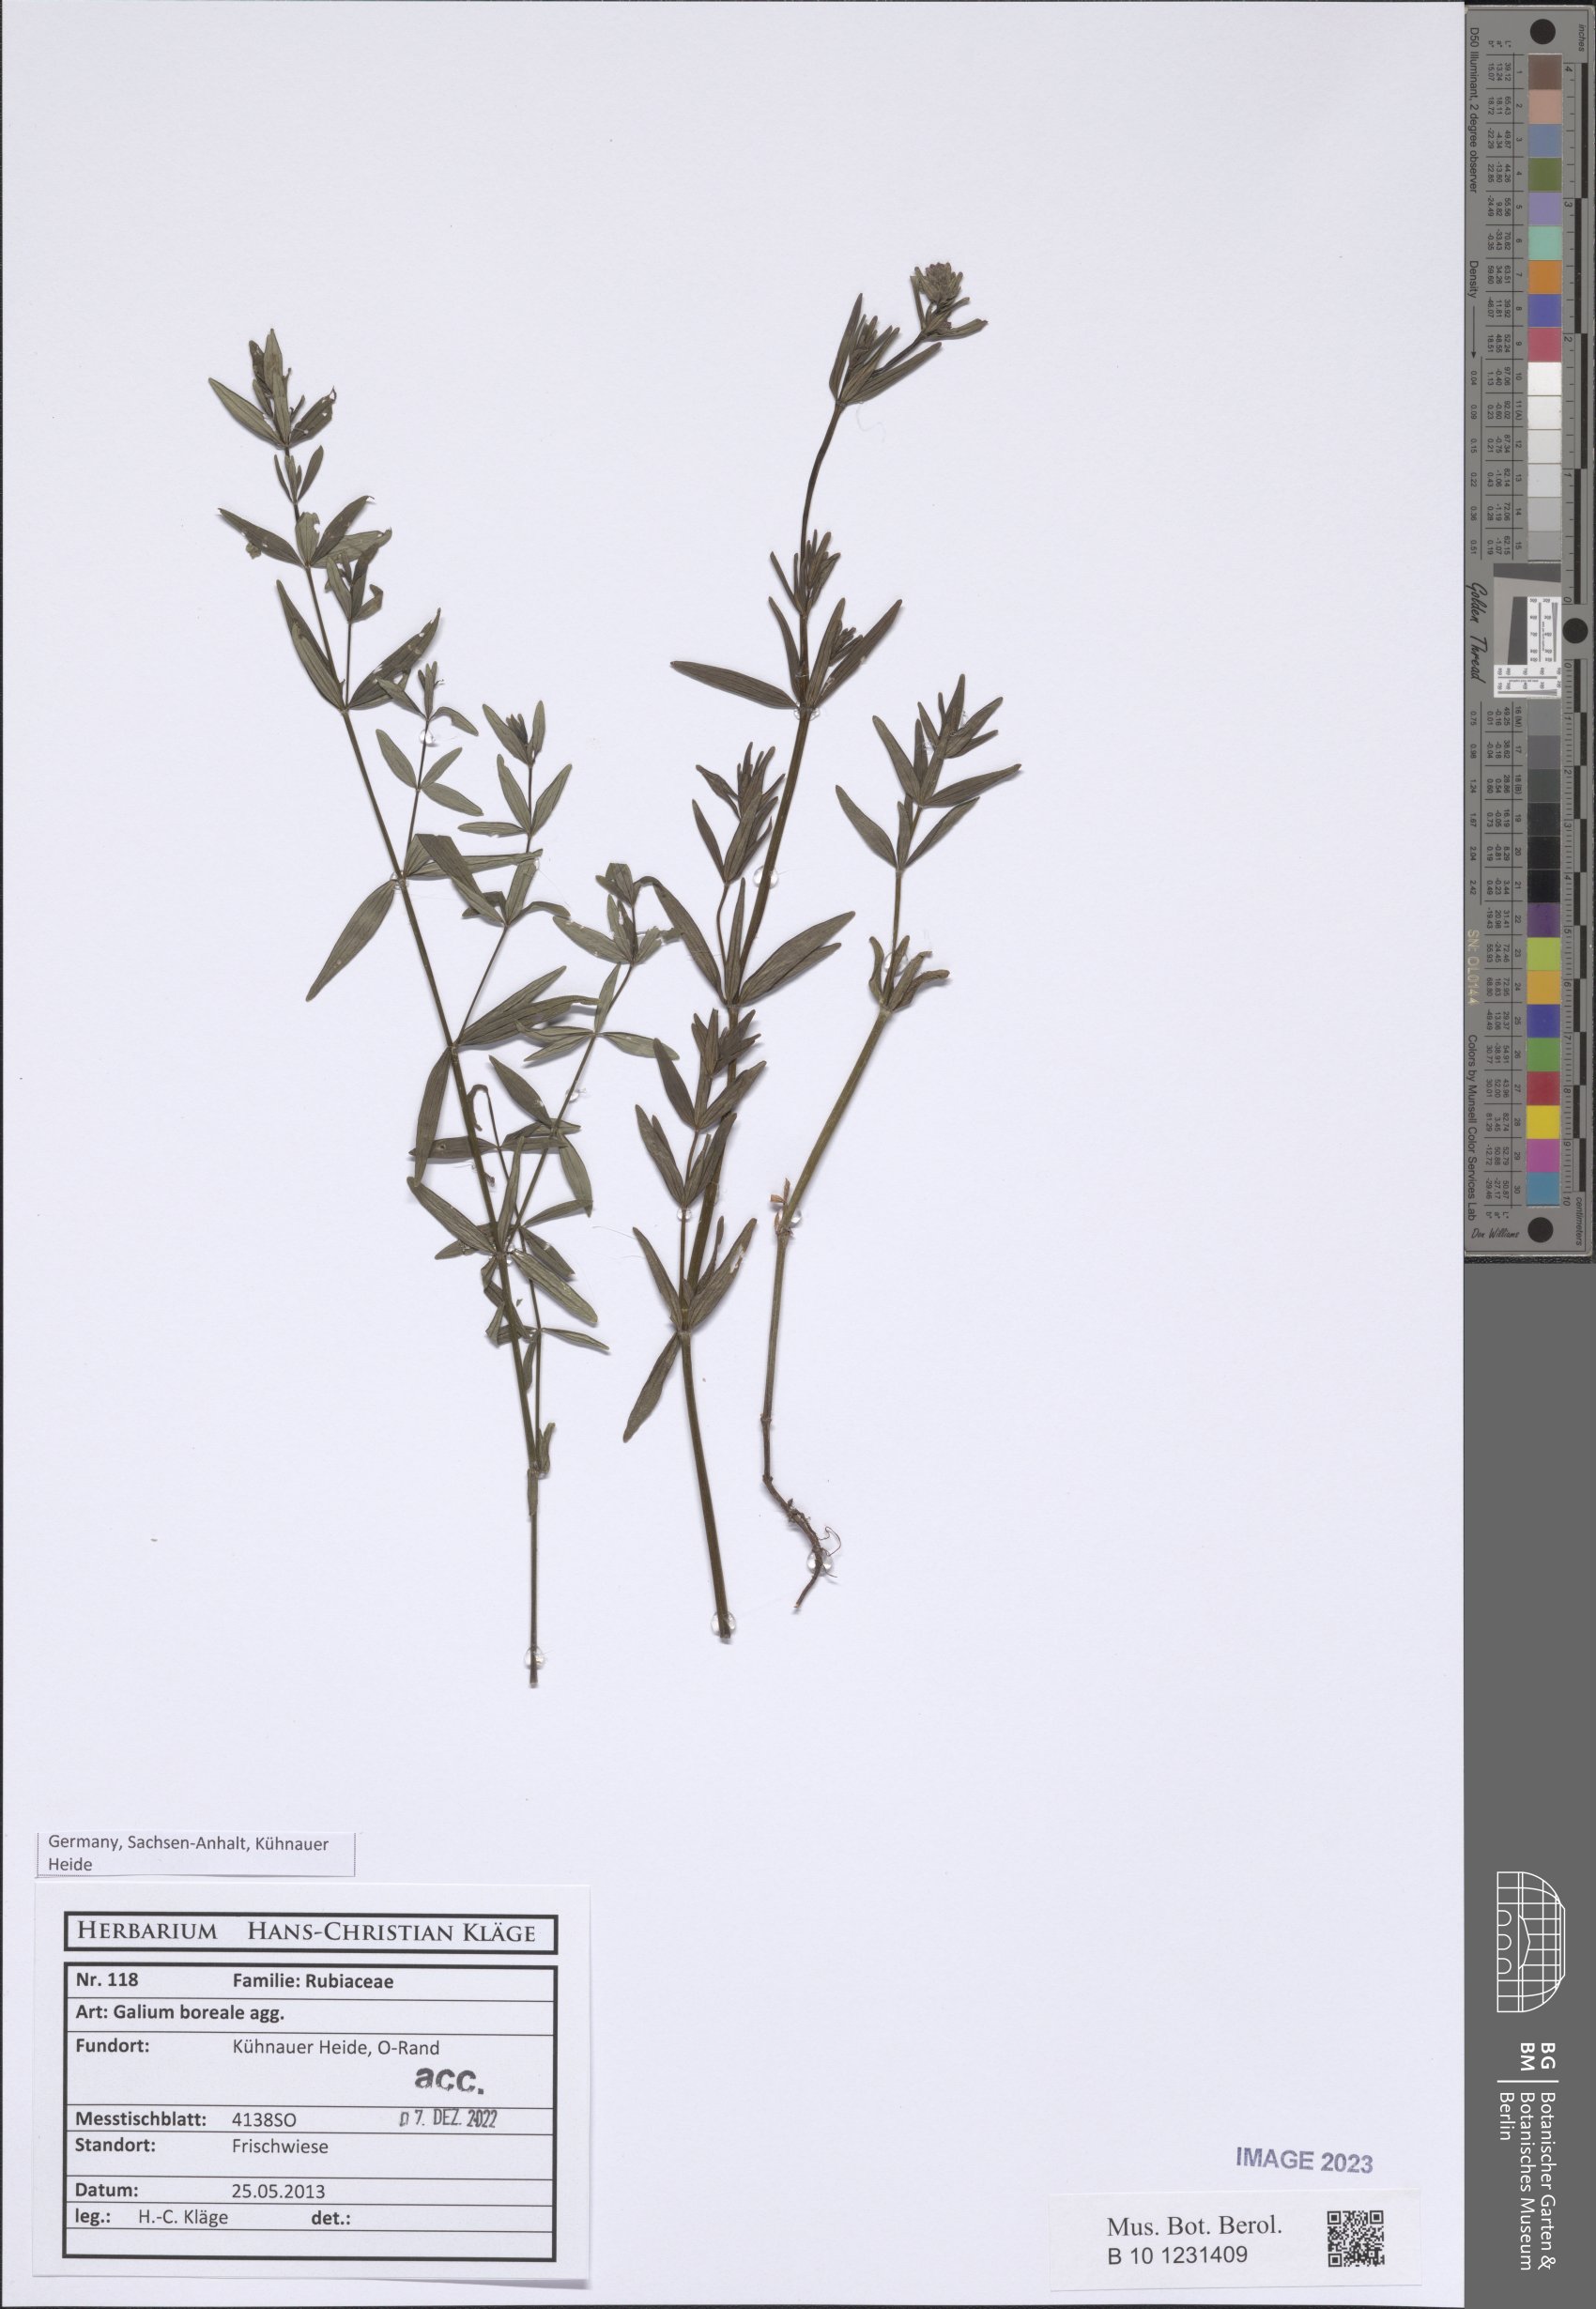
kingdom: Plantae
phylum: Tracheophyta
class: Magnoliopsida
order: Gentianales
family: Rubiaceae
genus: Galium
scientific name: Galium boreale
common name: Northern bedstraw
